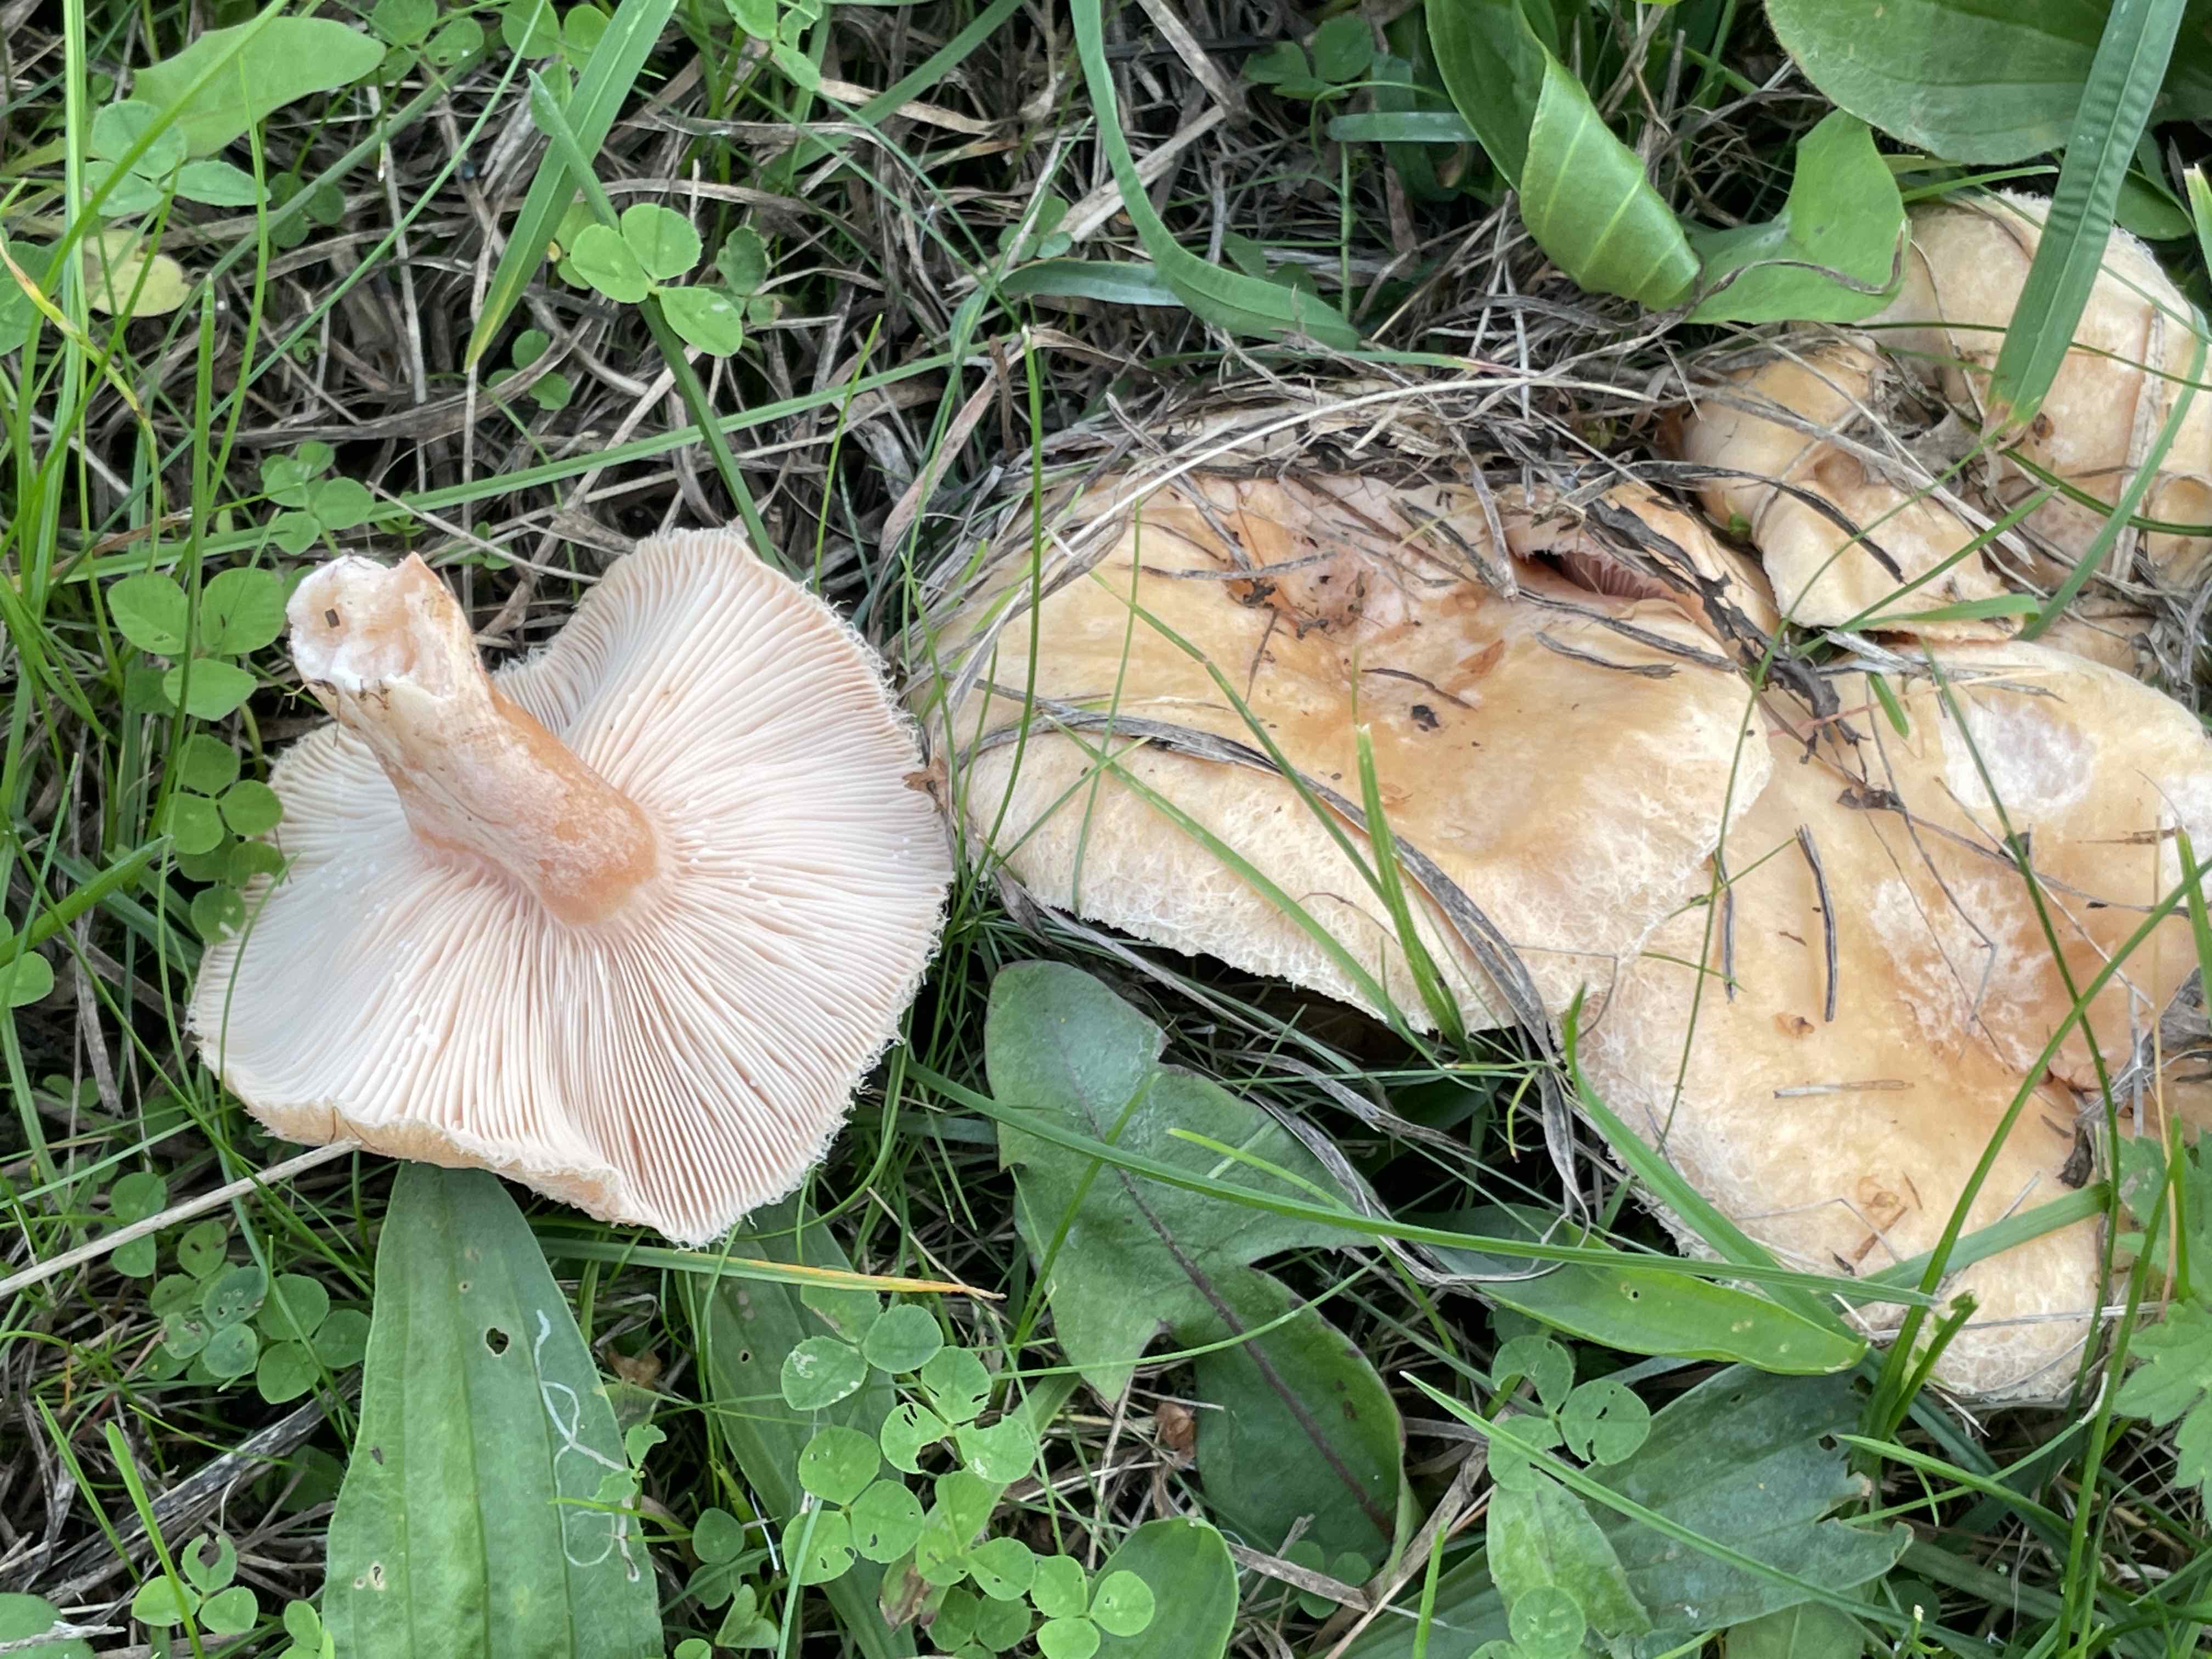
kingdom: Fungi
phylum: Basidiomycota
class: Agaricomycetes
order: Russulales
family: Russulaceae
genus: Lactarius
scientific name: Lactarius pubescens
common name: dunet mælkehat
